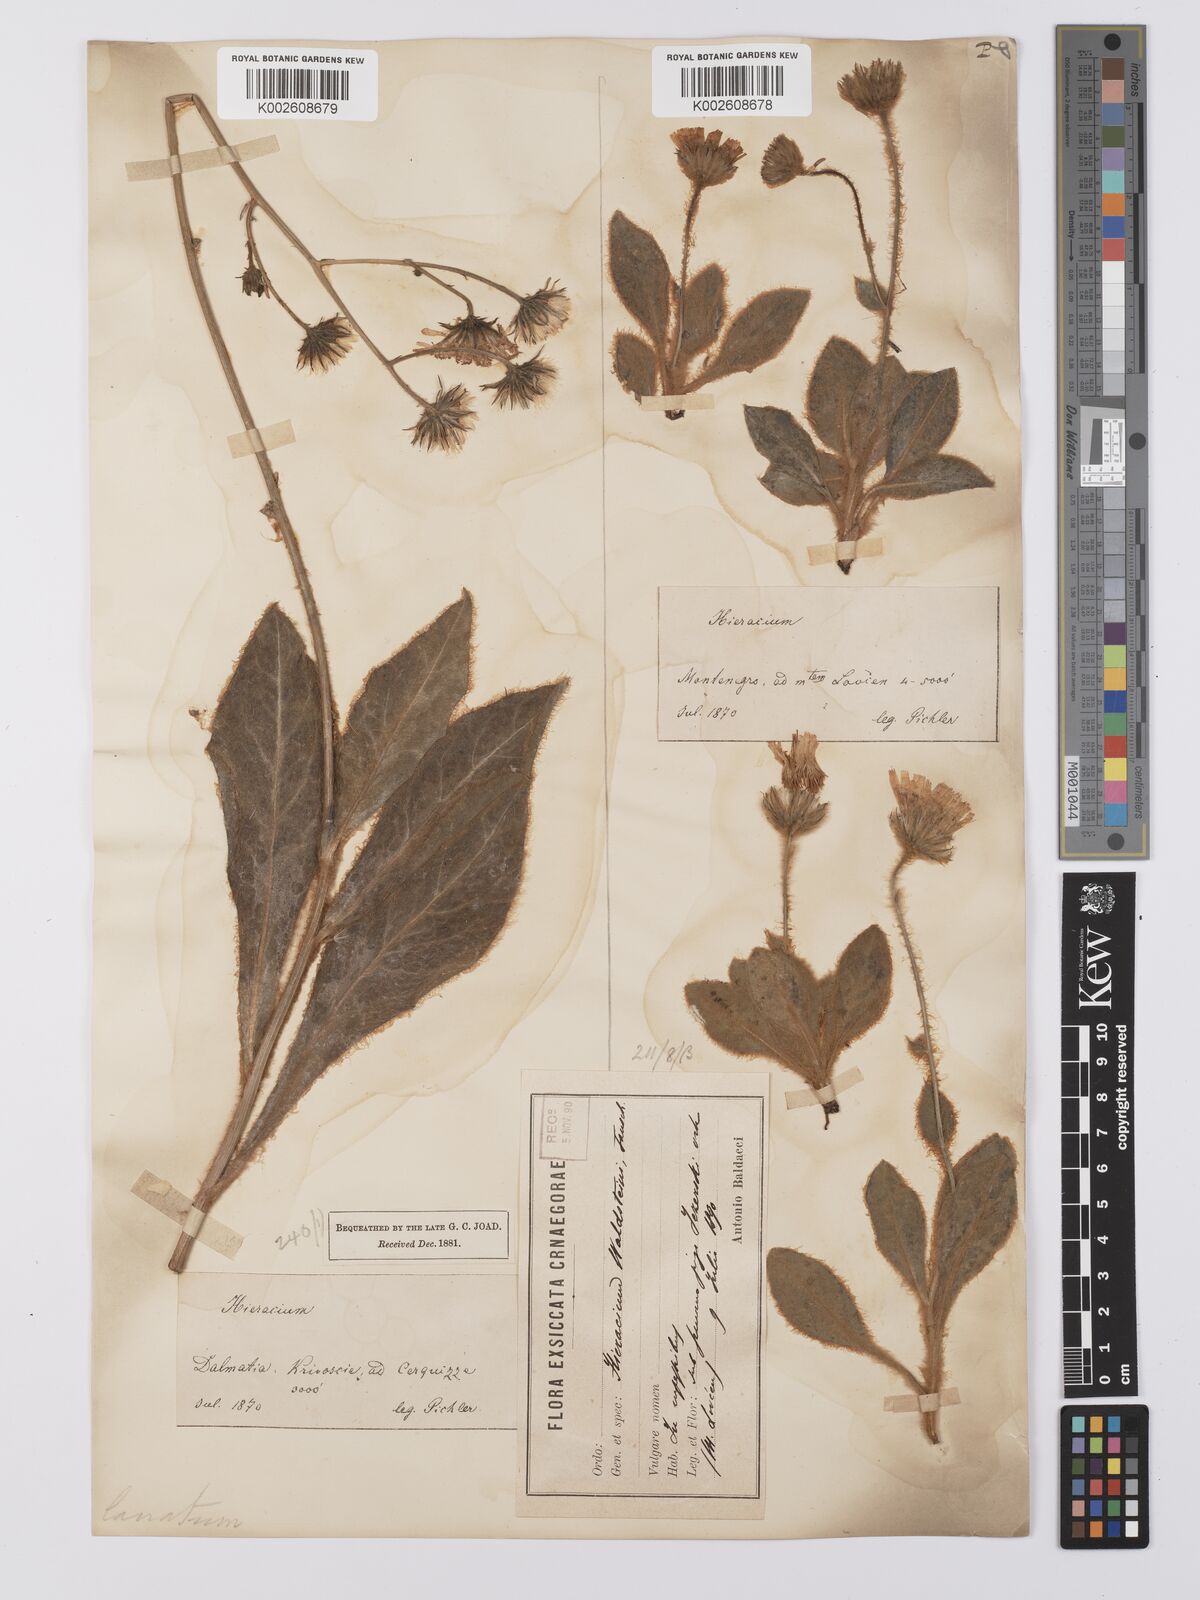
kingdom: Plantae
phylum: Tracheophyta
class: Magnoliopsida
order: Asterales
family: Asteraceae
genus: Hieracium
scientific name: Hieracium
